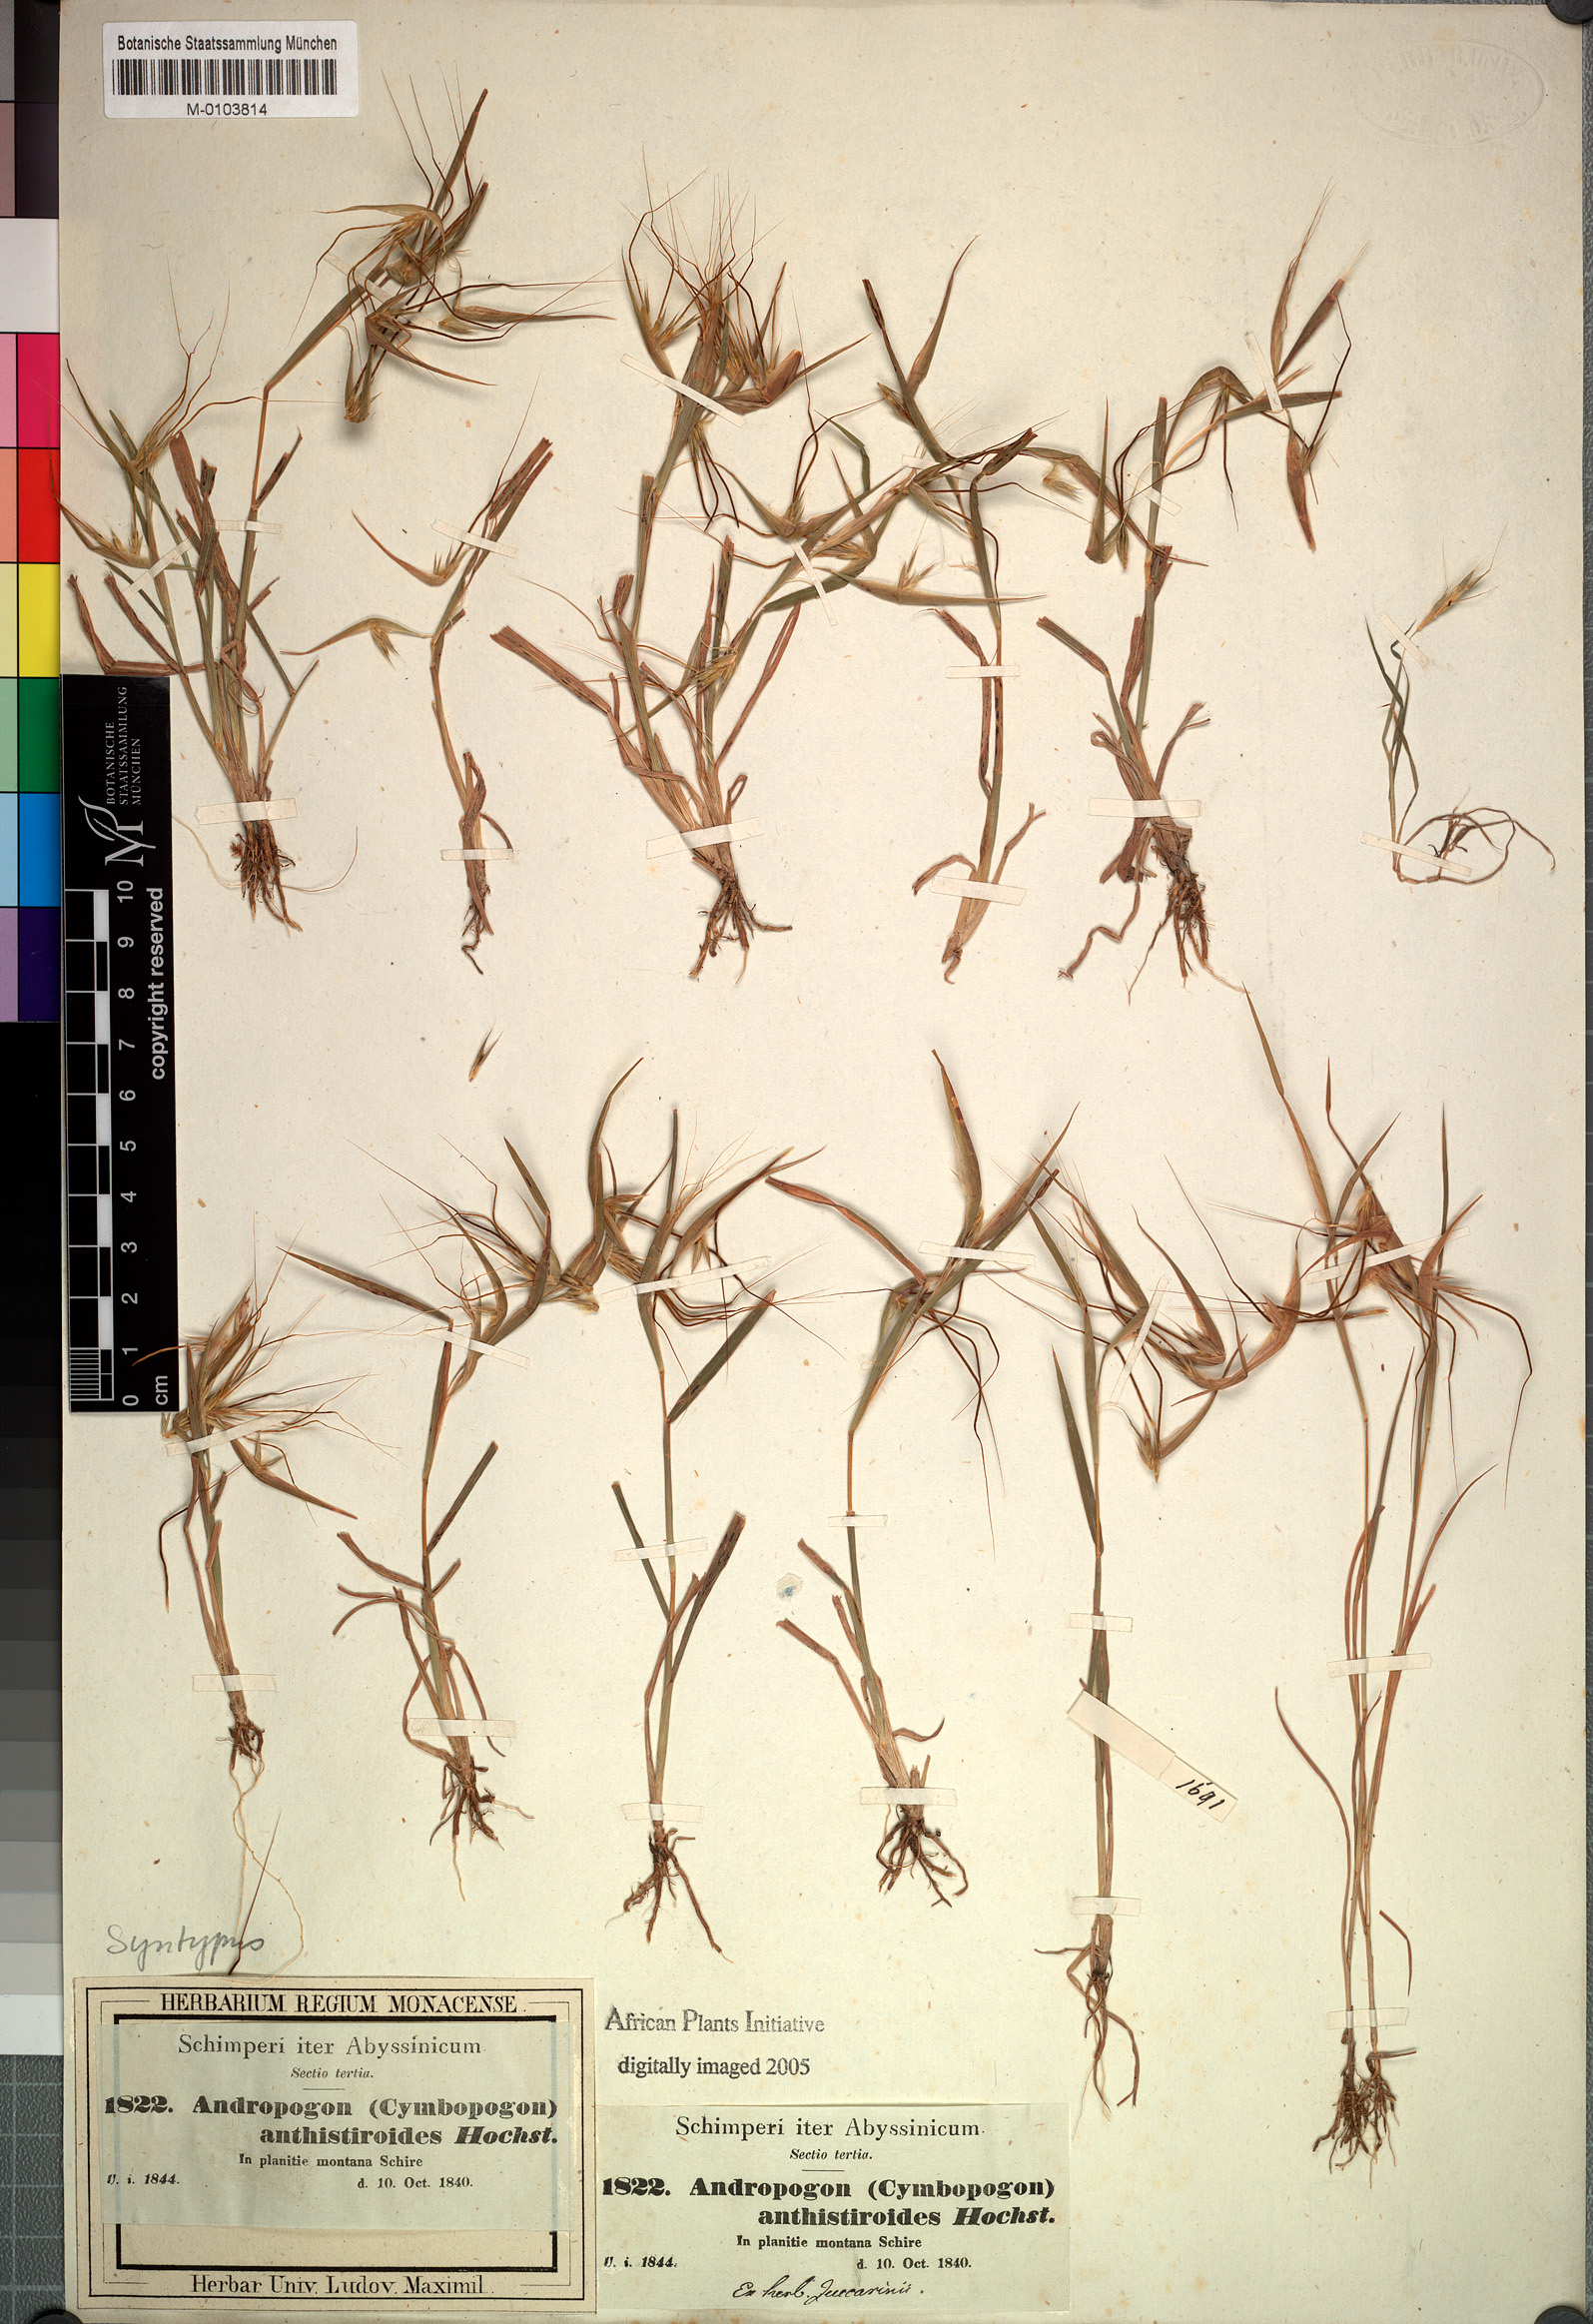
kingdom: Plantae
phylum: Tracheophyta
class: Liliopsida
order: Poales
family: Poaceae
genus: Hyparrhenia
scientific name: Hyparrhenia anthistirioides
